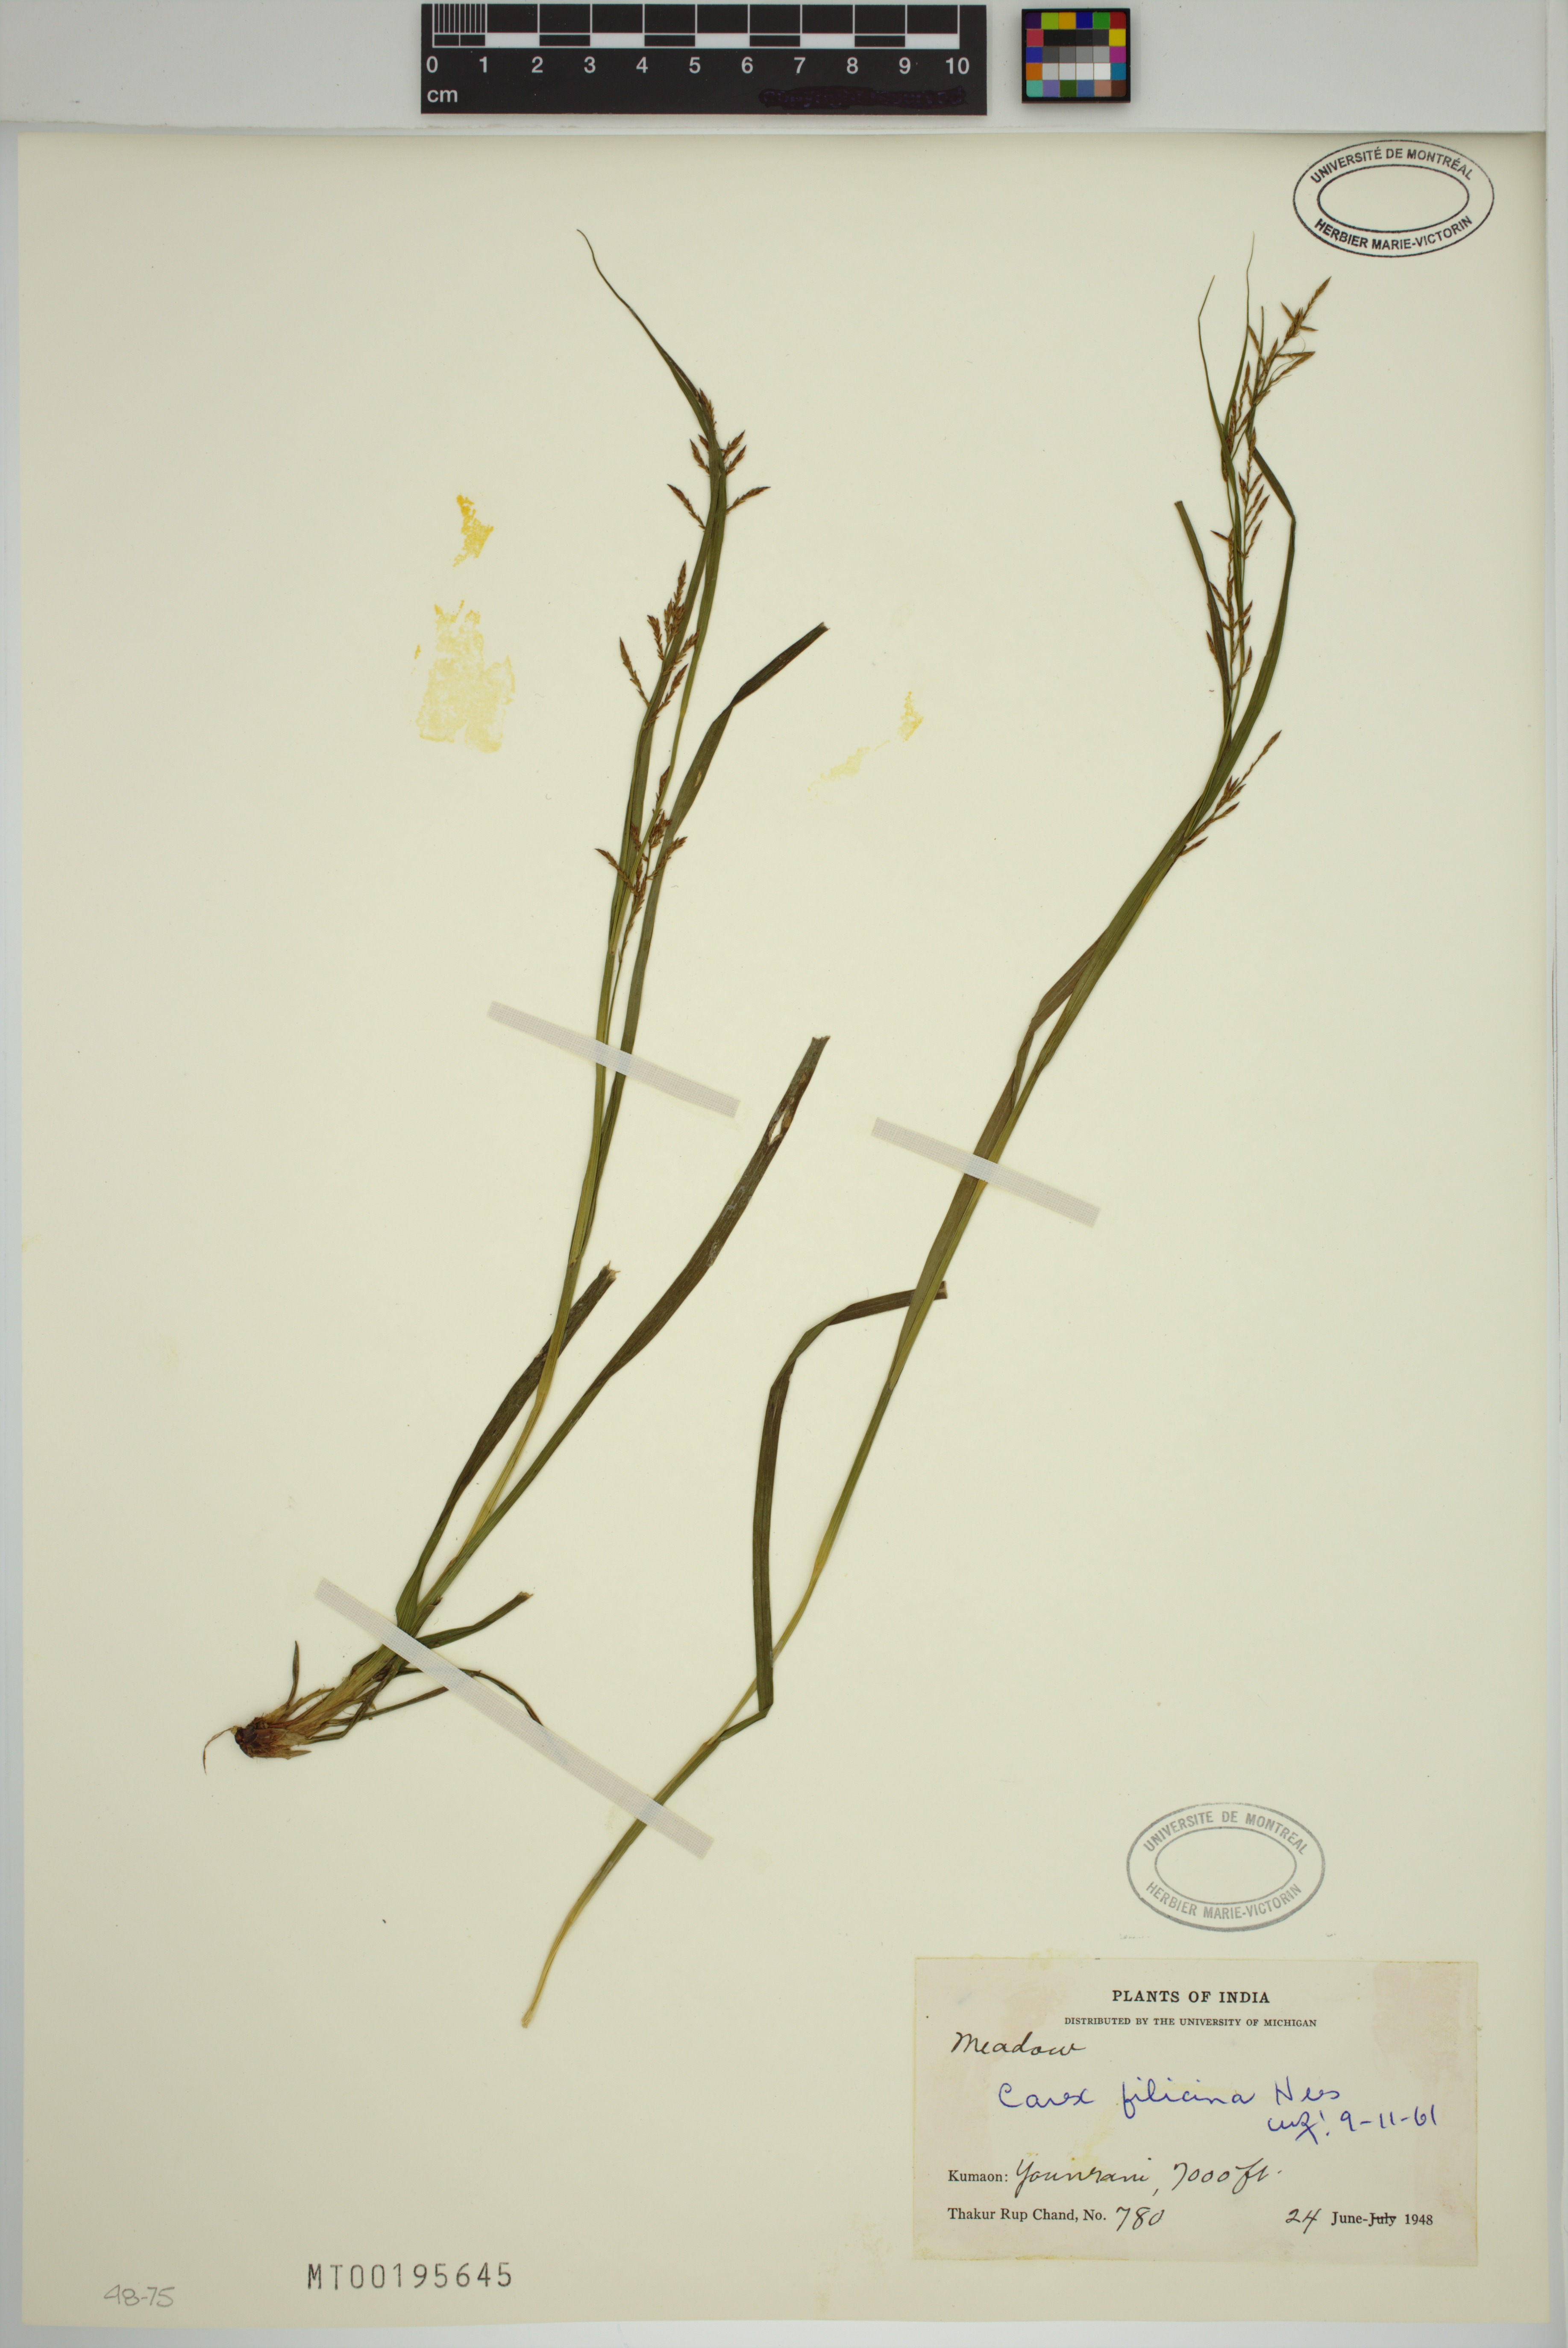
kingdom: Plantae
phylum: Tracheophyta
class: Liliopsida
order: Poales
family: Cyperaceae
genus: Carex
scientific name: Carex filicina
